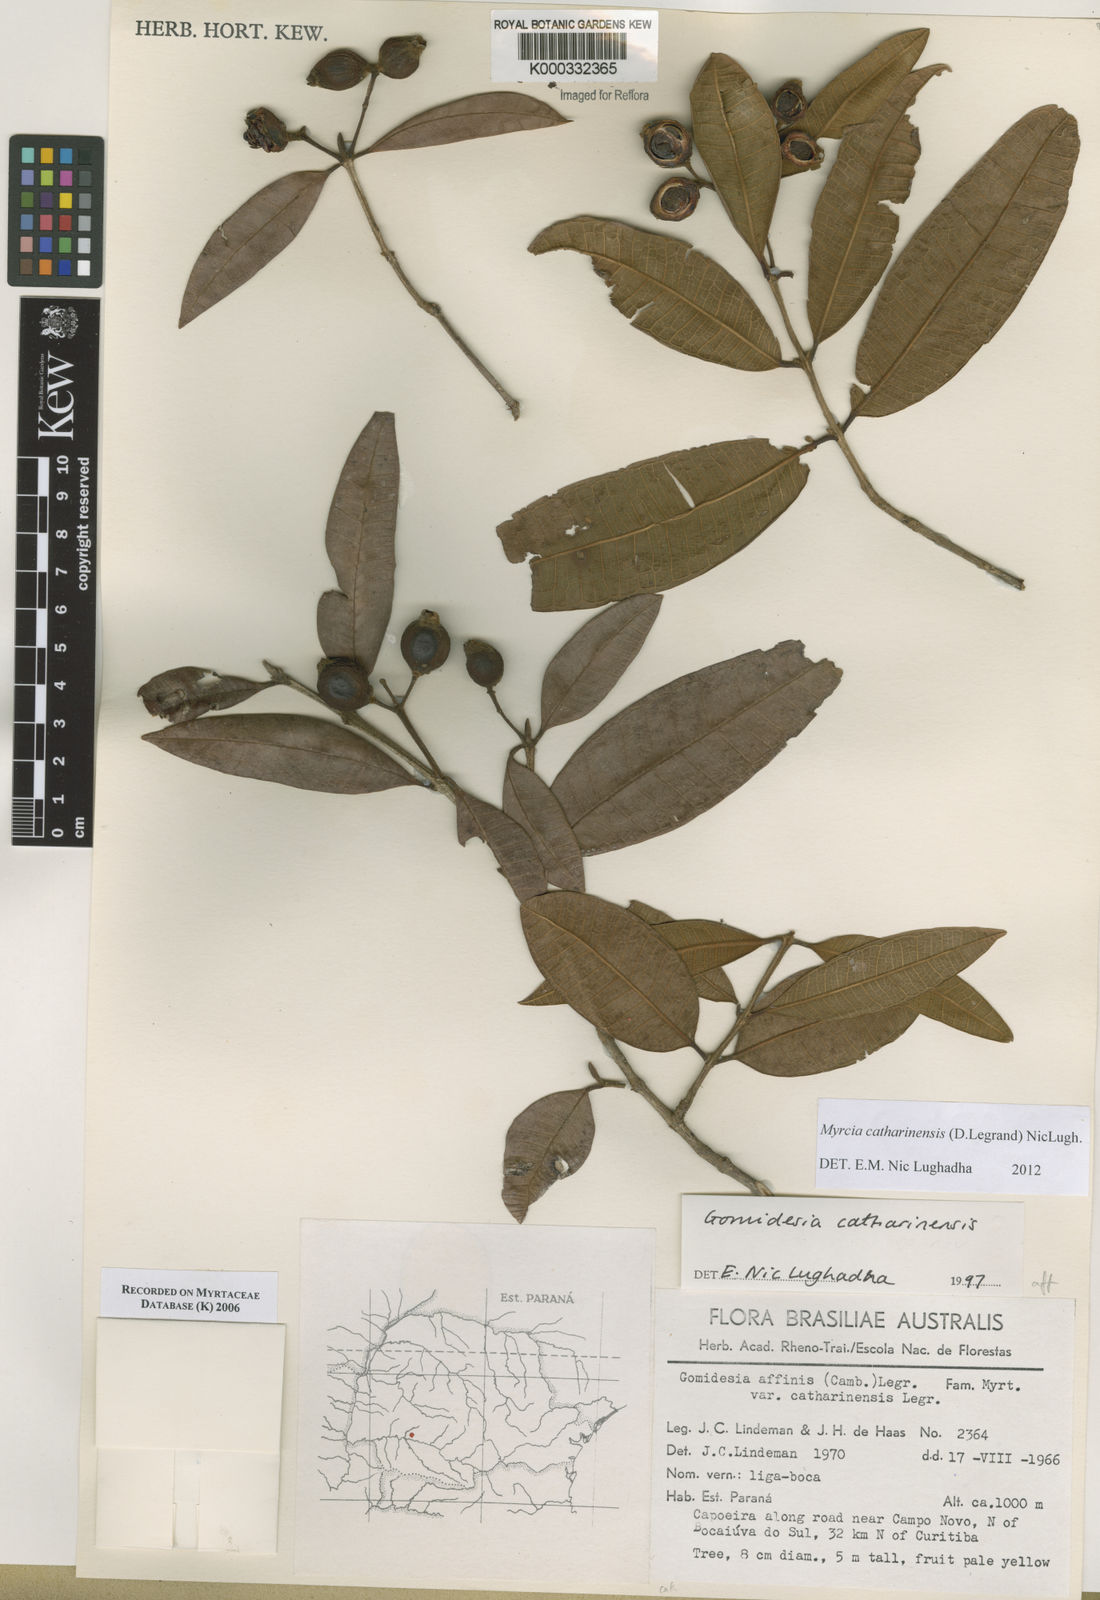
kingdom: Plantae
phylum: Tracheophyta
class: Magnoliopsida
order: Myrtales
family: Myrtaceae
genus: Myrcia
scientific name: Myrcia
